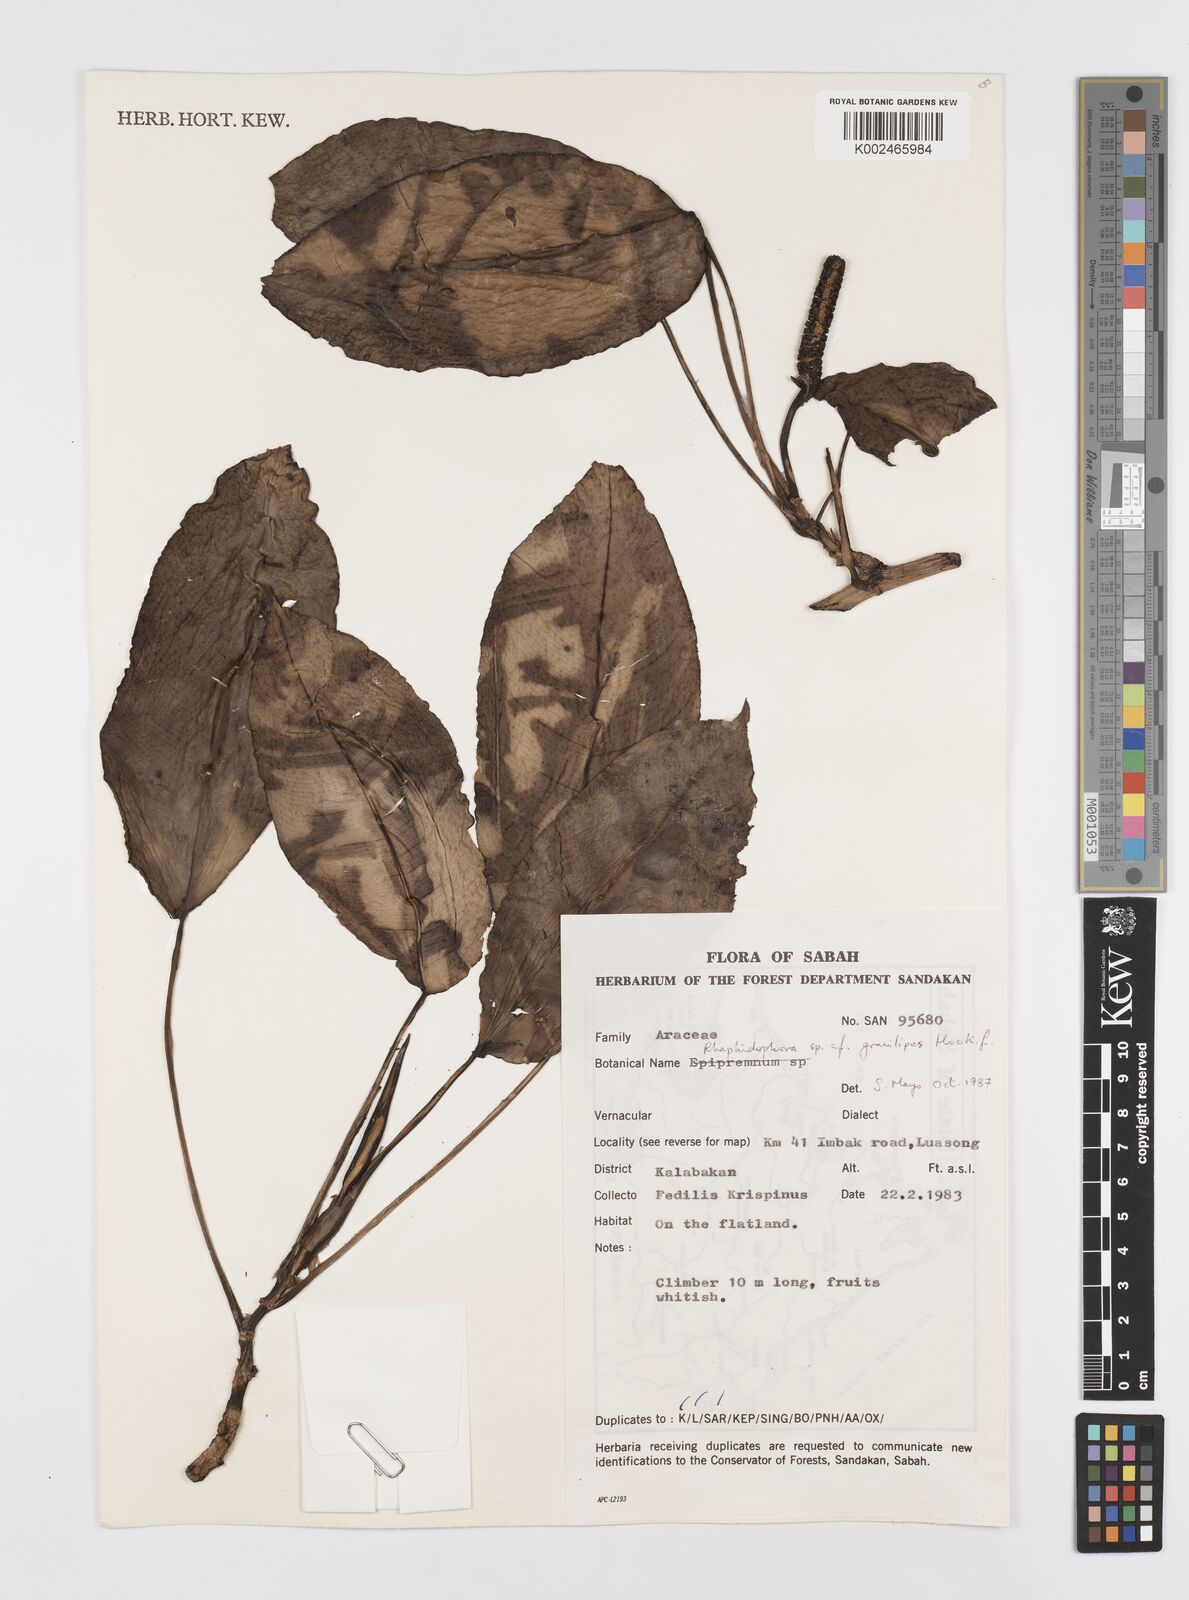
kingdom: Plantae
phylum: Tracheophyta
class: Liliopsida
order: Alismatales
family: Araceae
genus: Rhaphidophora
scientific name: Rhaphidophora puberula
